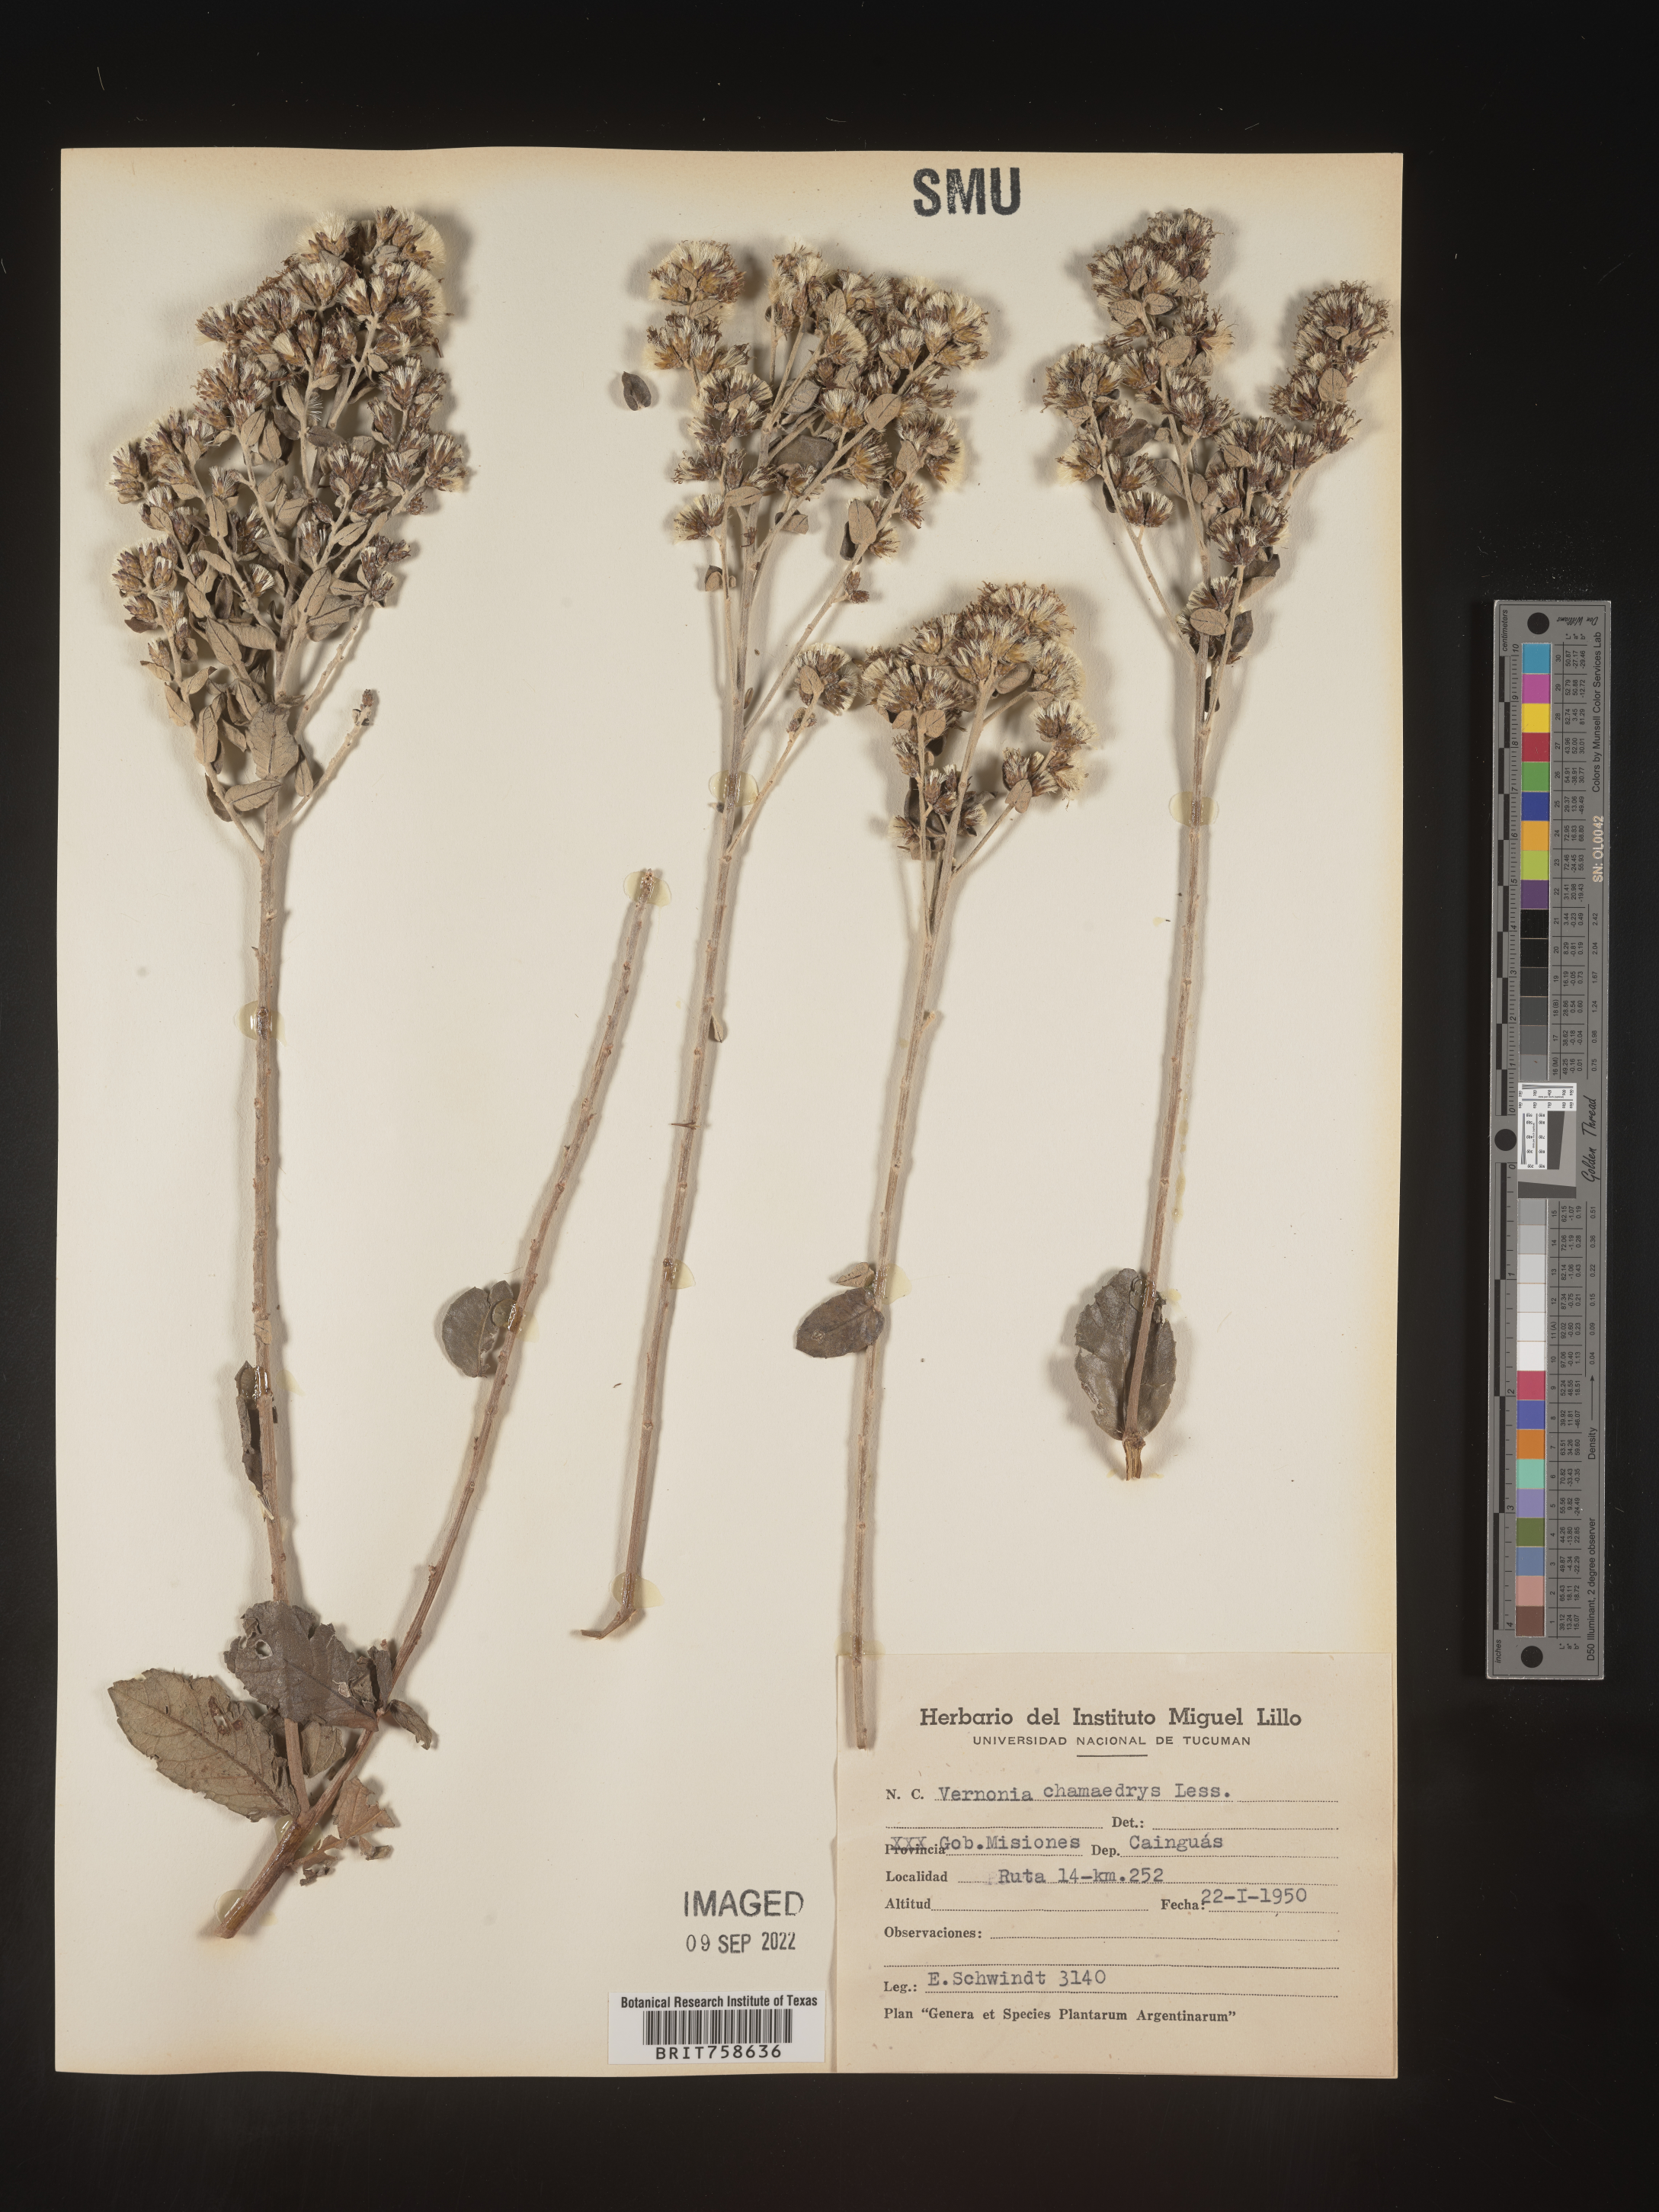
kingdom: Plantae
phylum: Tracheophyta
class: Magnoliopsida
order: Asterales
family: Asteraceae
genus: Vernonia
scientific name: Vernonia
